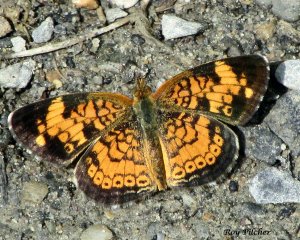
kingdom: Animalia
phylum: Arthropoda
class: Insecta
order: Lepidoptera
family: Nymphalidae
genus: Phyciodes
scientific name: Phyciodes tharos
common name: Pearl Crescent
